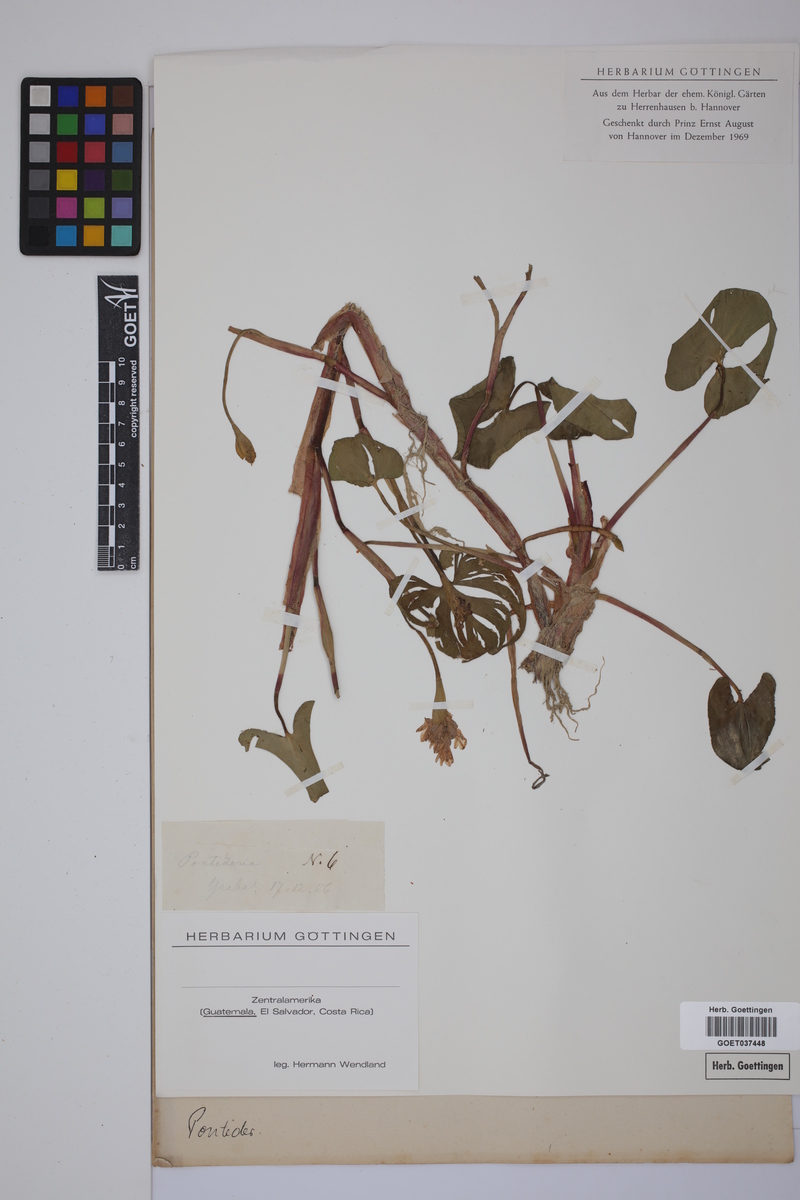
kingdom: Plantae
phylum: Tracheophyta
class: Liliopsida
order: Commelinales
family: Pontederiaceae
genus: Pontederia
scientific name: Pontederia
